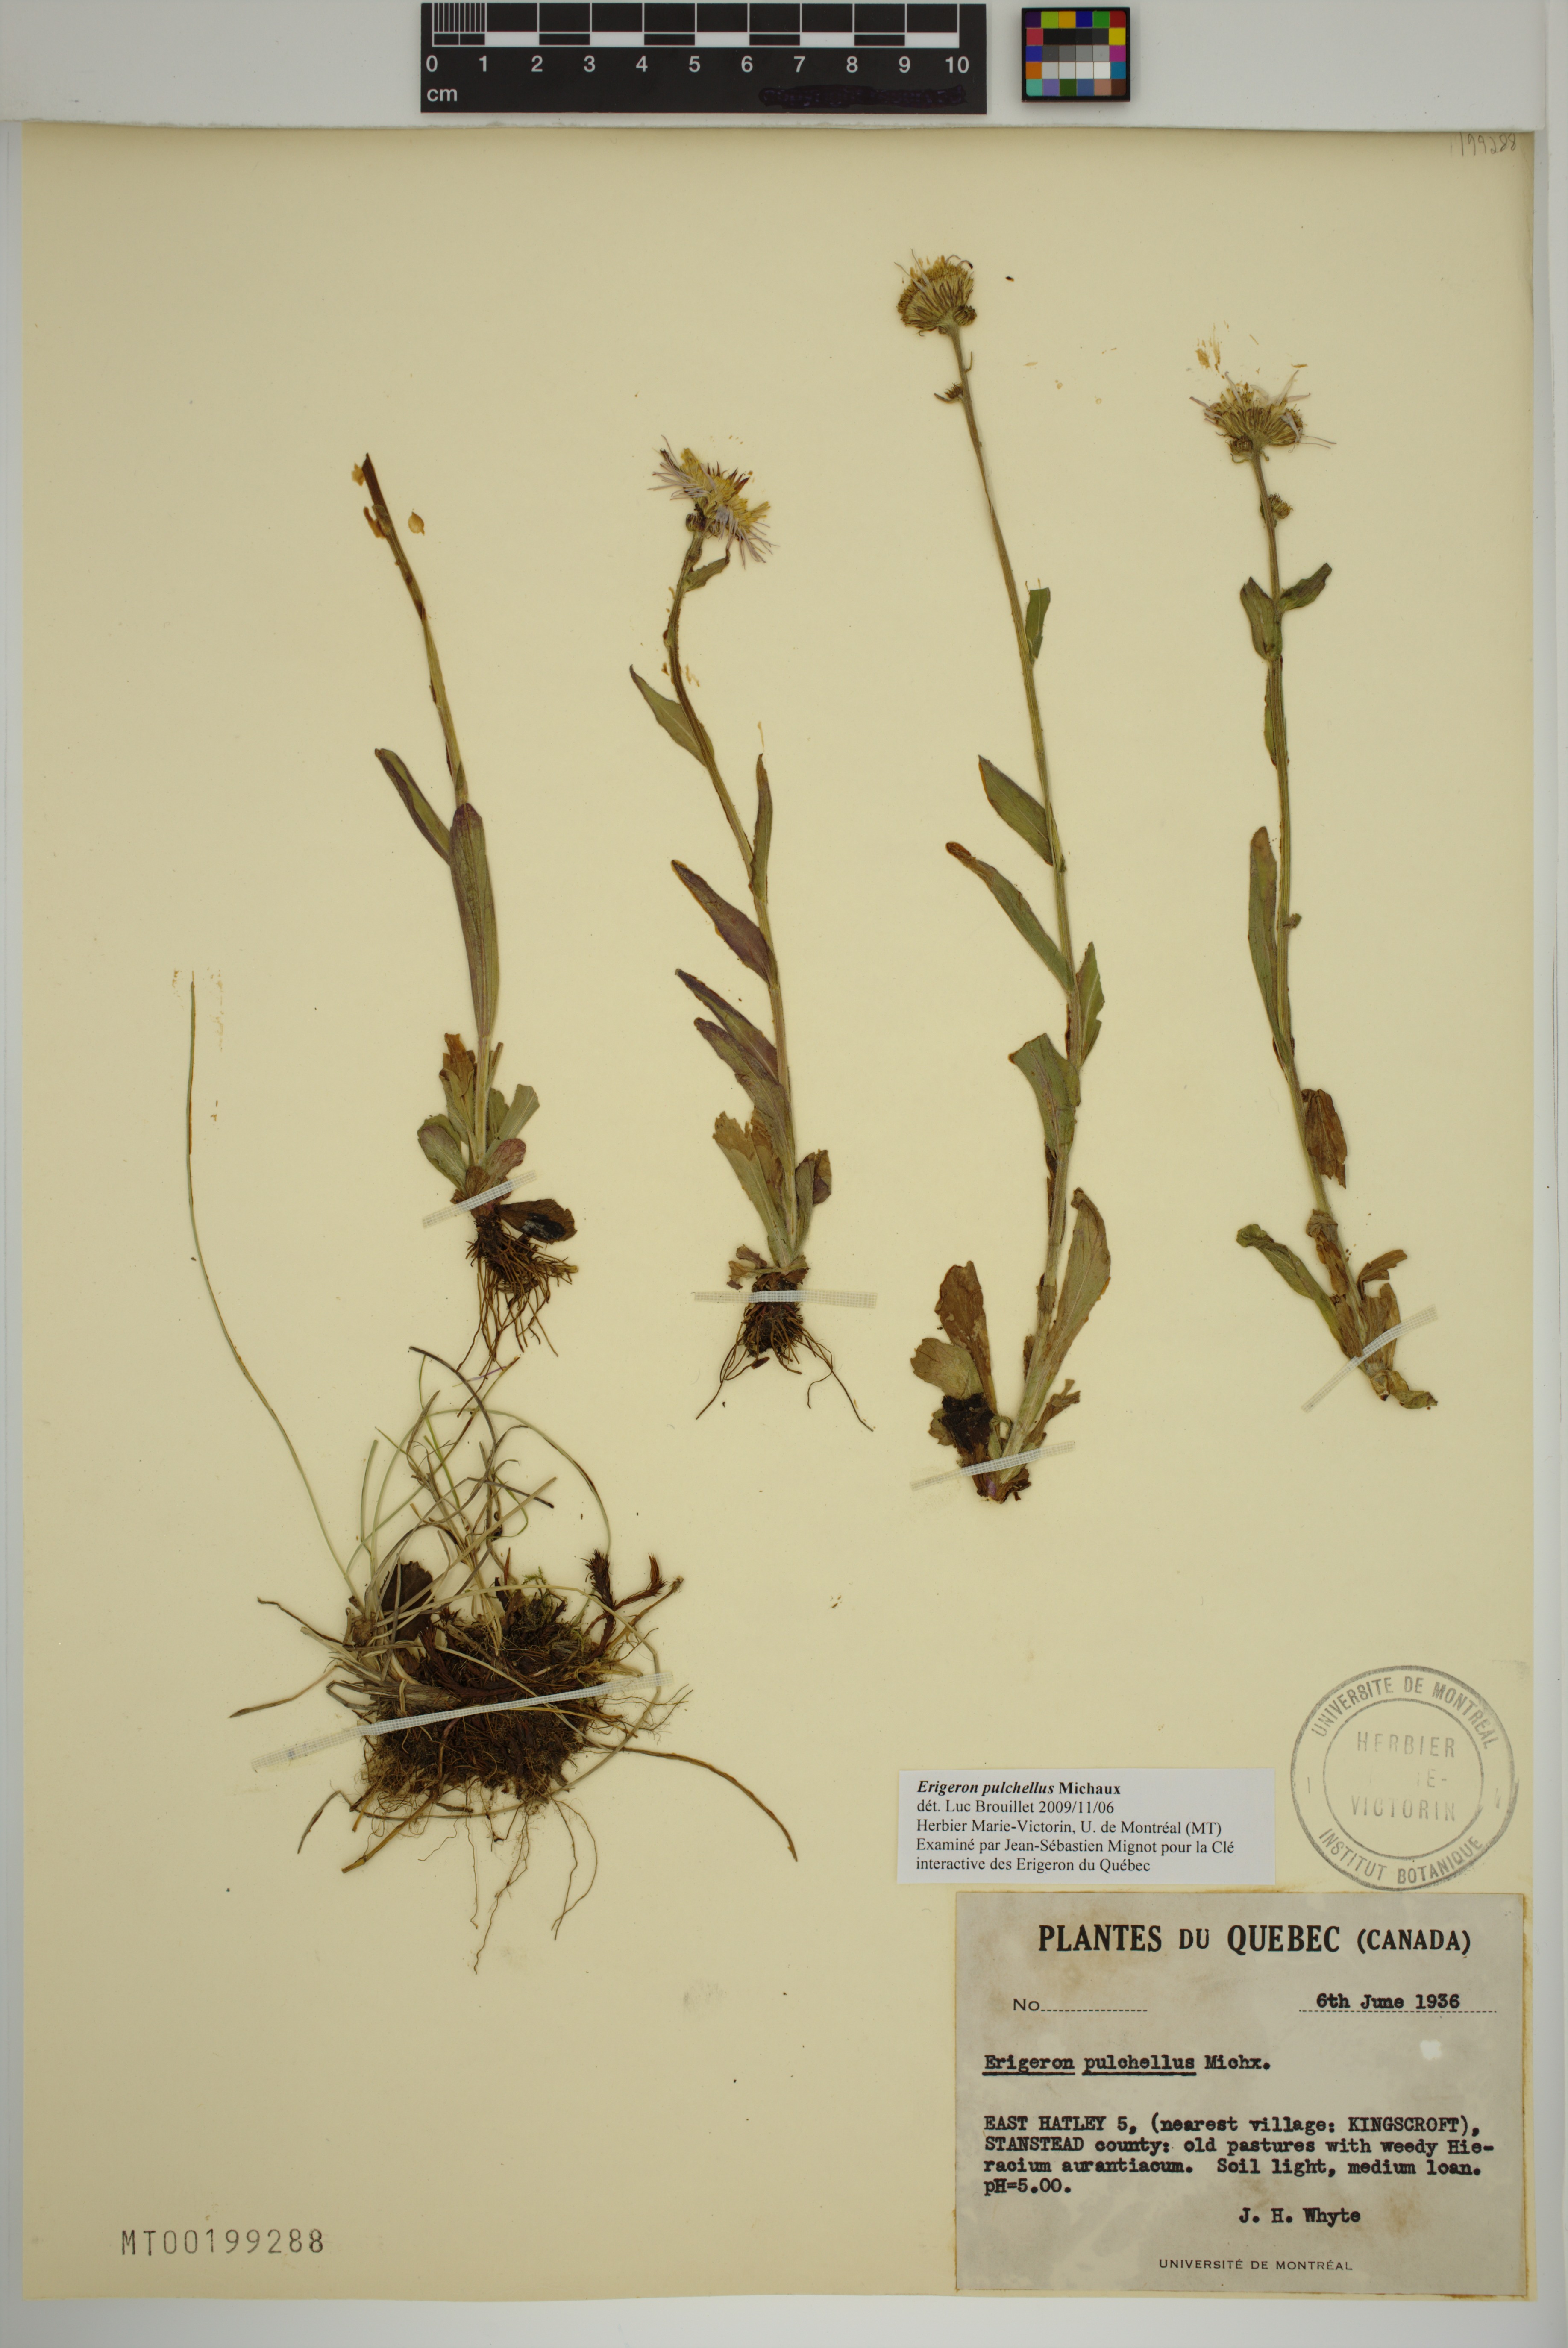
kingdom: Plantae
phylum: Tracheophyta
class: Magnoliopsida
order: Asterales
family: Asteraceae
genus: Erigeron
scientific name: Erigeron pulchellus
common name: Hairy fleabane
